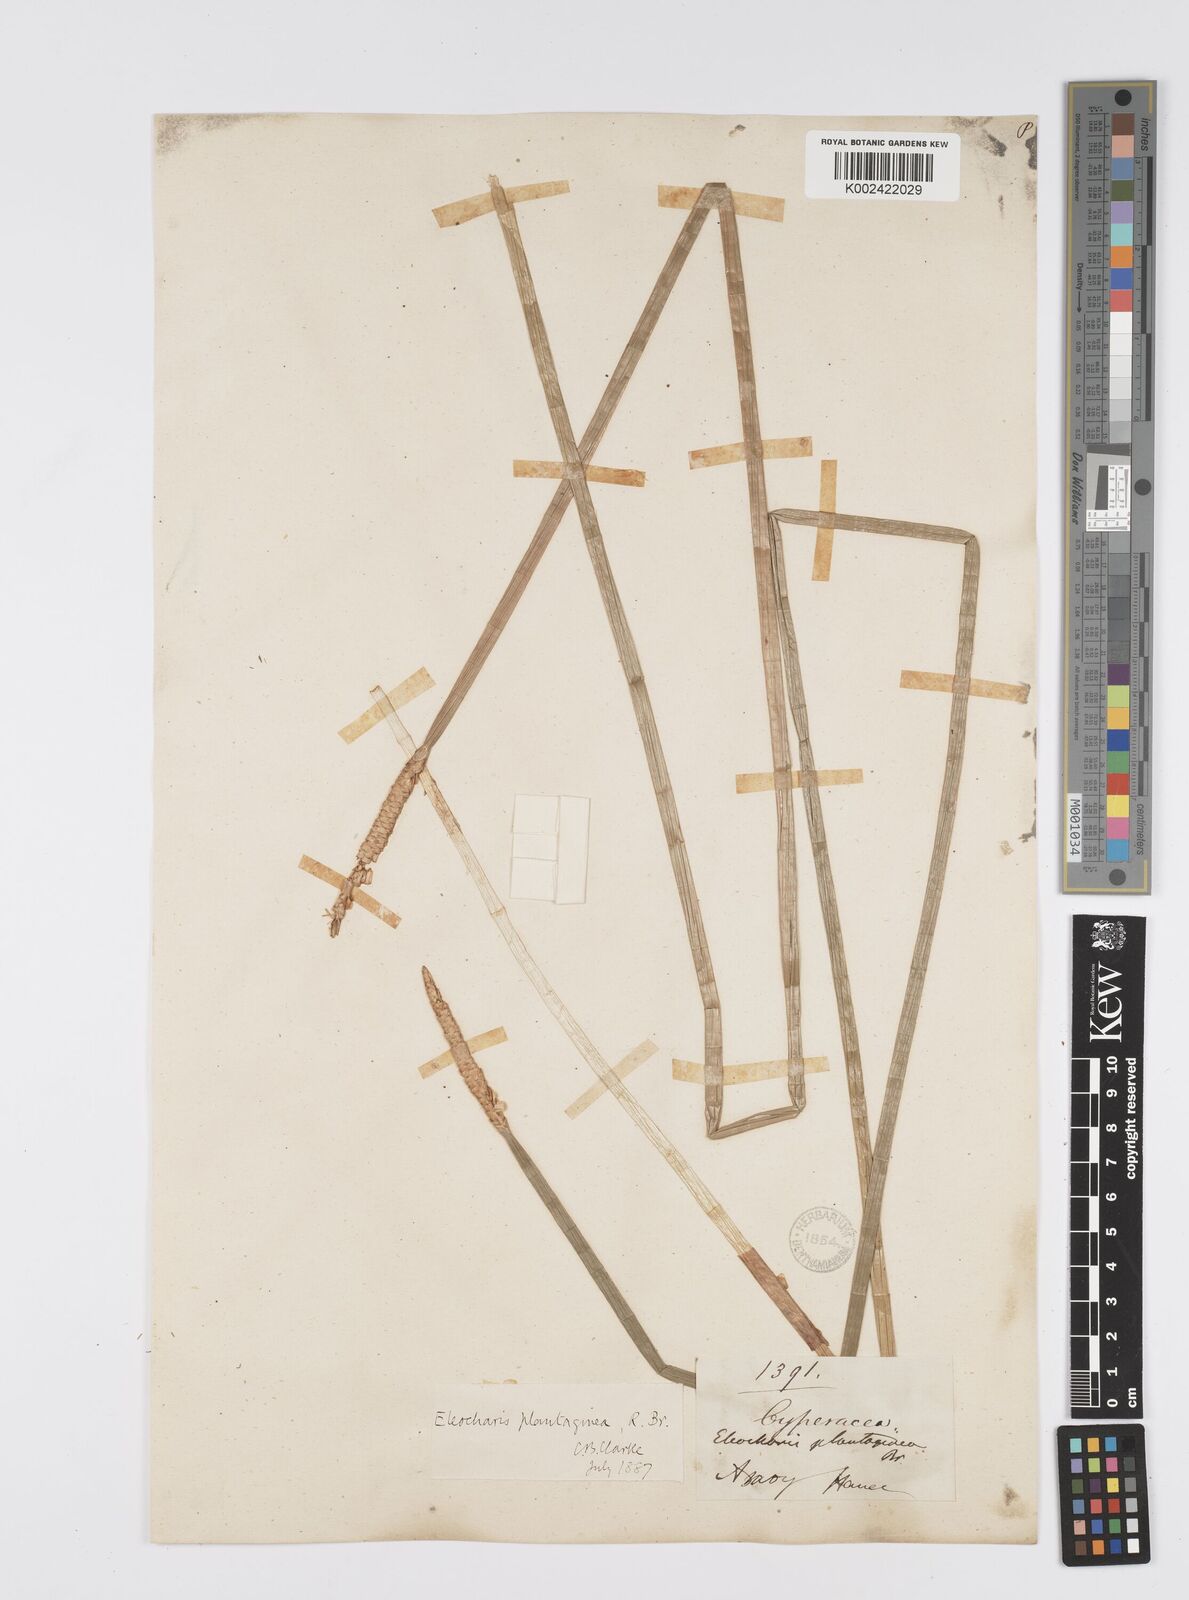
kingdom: Plantae
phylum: Tracheophyta
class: Liliopsida
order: Poales
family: Cyperaceae
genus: Eleocharis
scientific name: Eleocharis dulcis
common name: Chinese water chestnut
